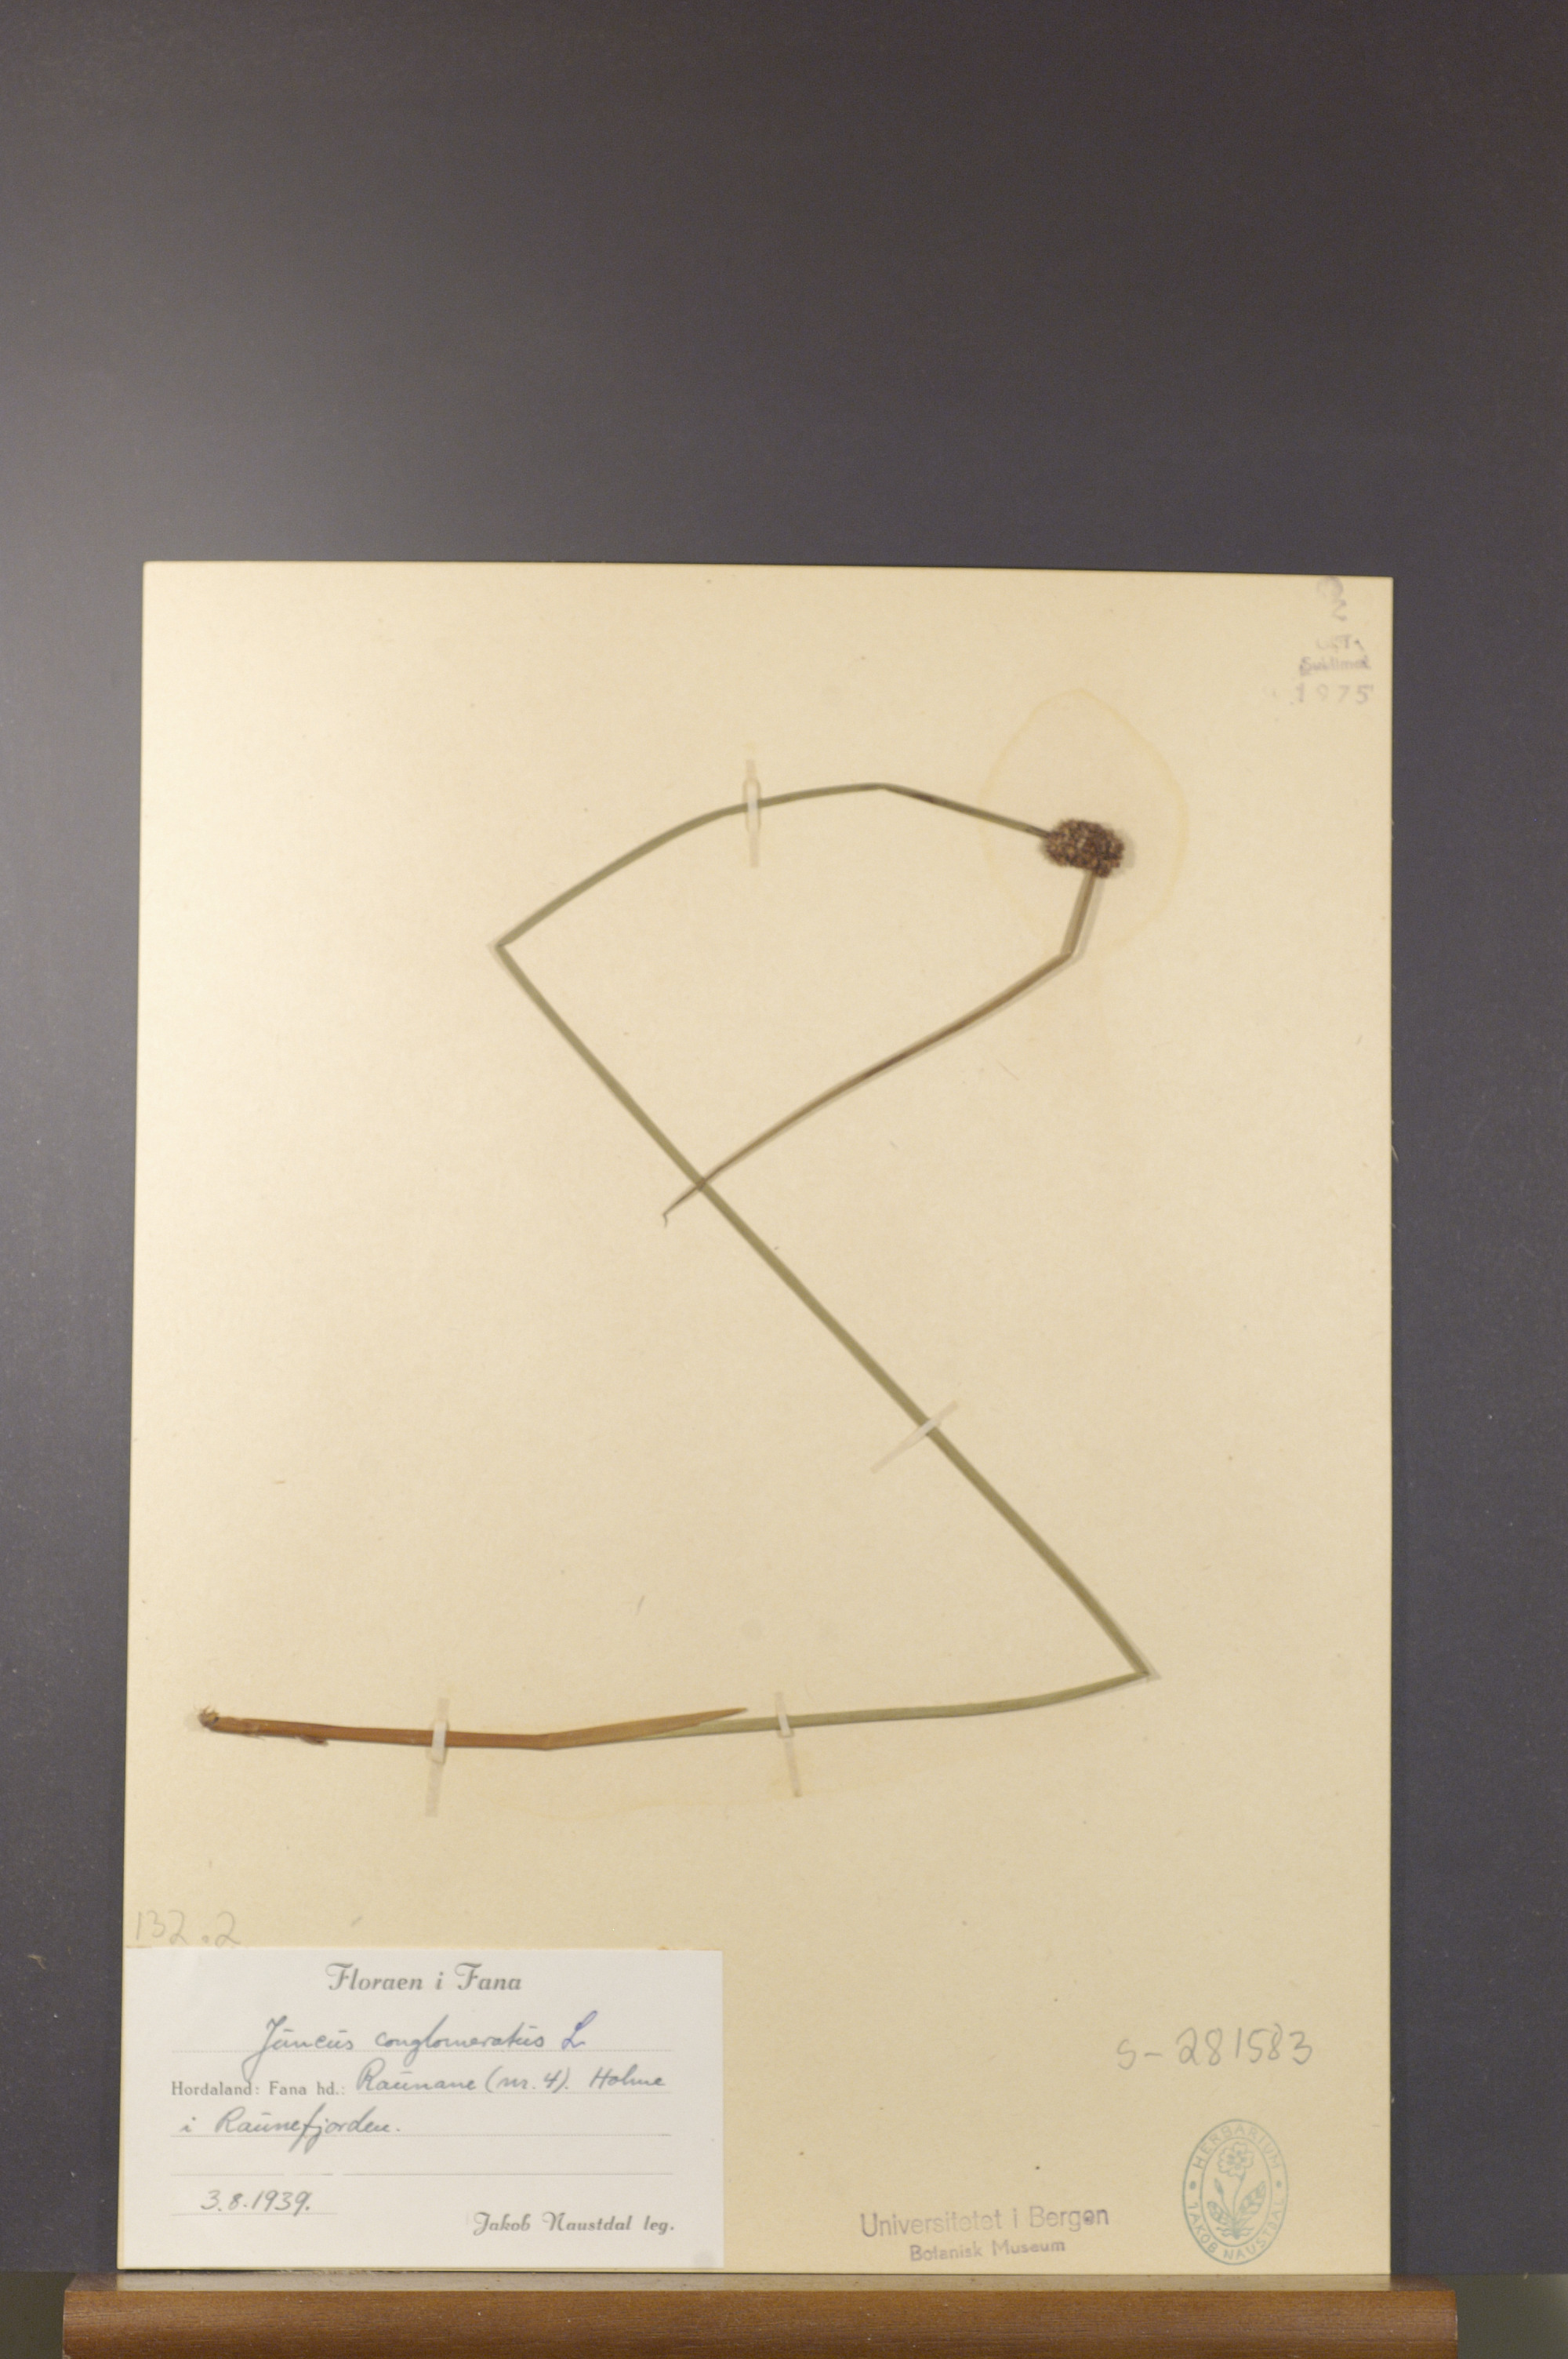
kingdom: Plantae
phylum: Tracheophyta
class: Liliopsida
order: Poales
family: Juncaceae
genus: Juncus
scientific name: Juncus conglomeratus
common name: Compact rush
